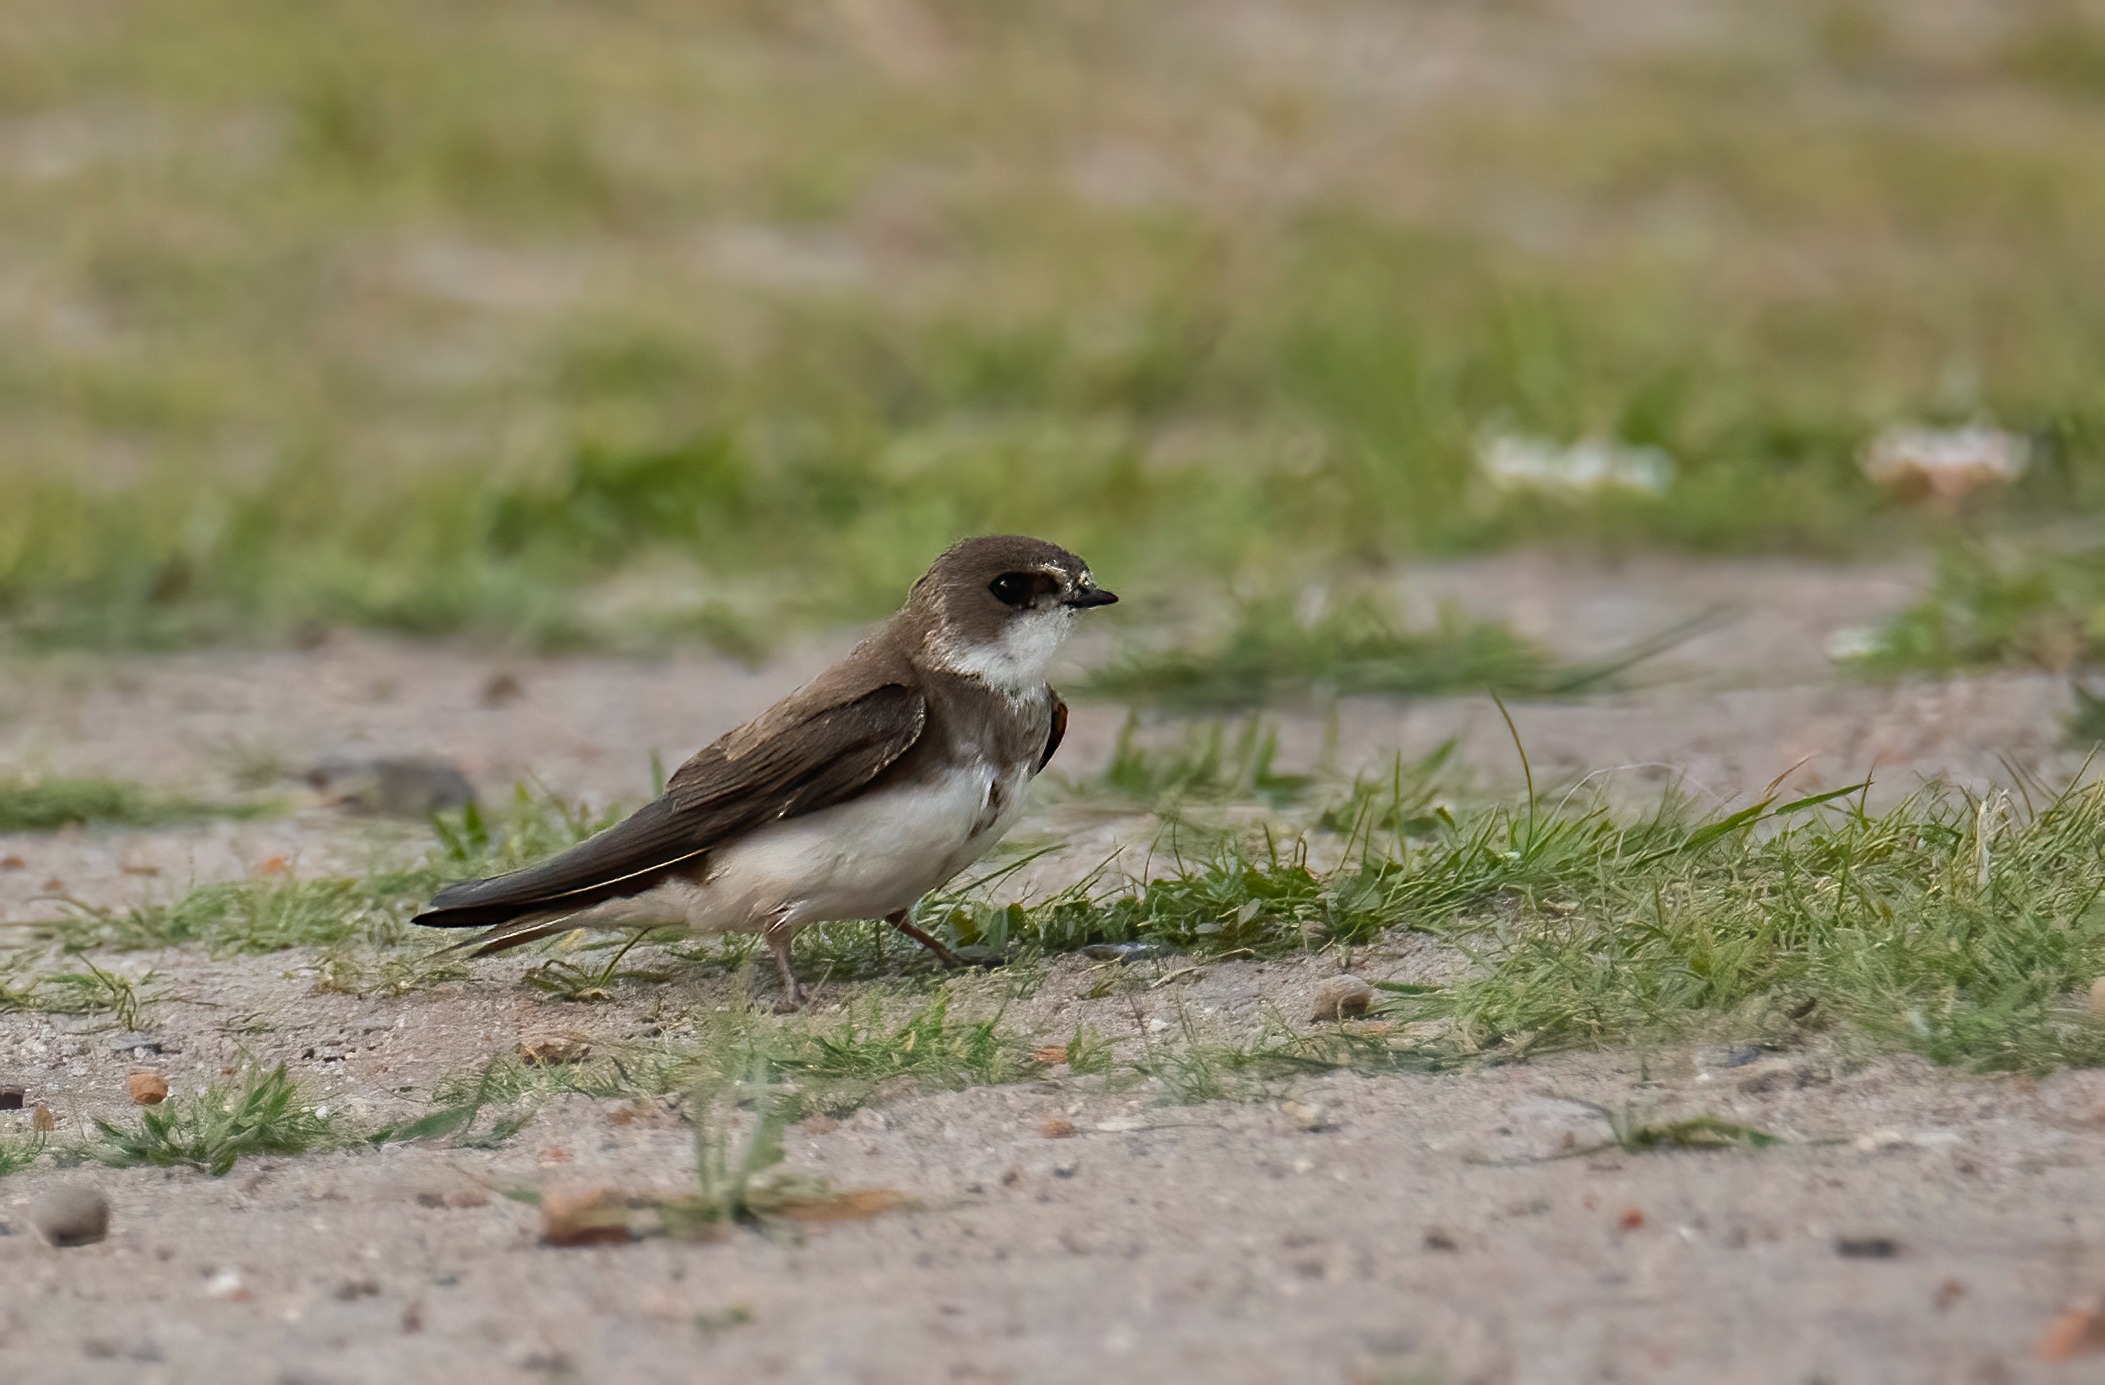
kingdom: Animalia
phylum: Chordata
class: Aves
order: Passeriformes
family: Hirundinidae
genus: Riparia
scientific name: Riparia riparia
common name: Digesvale
